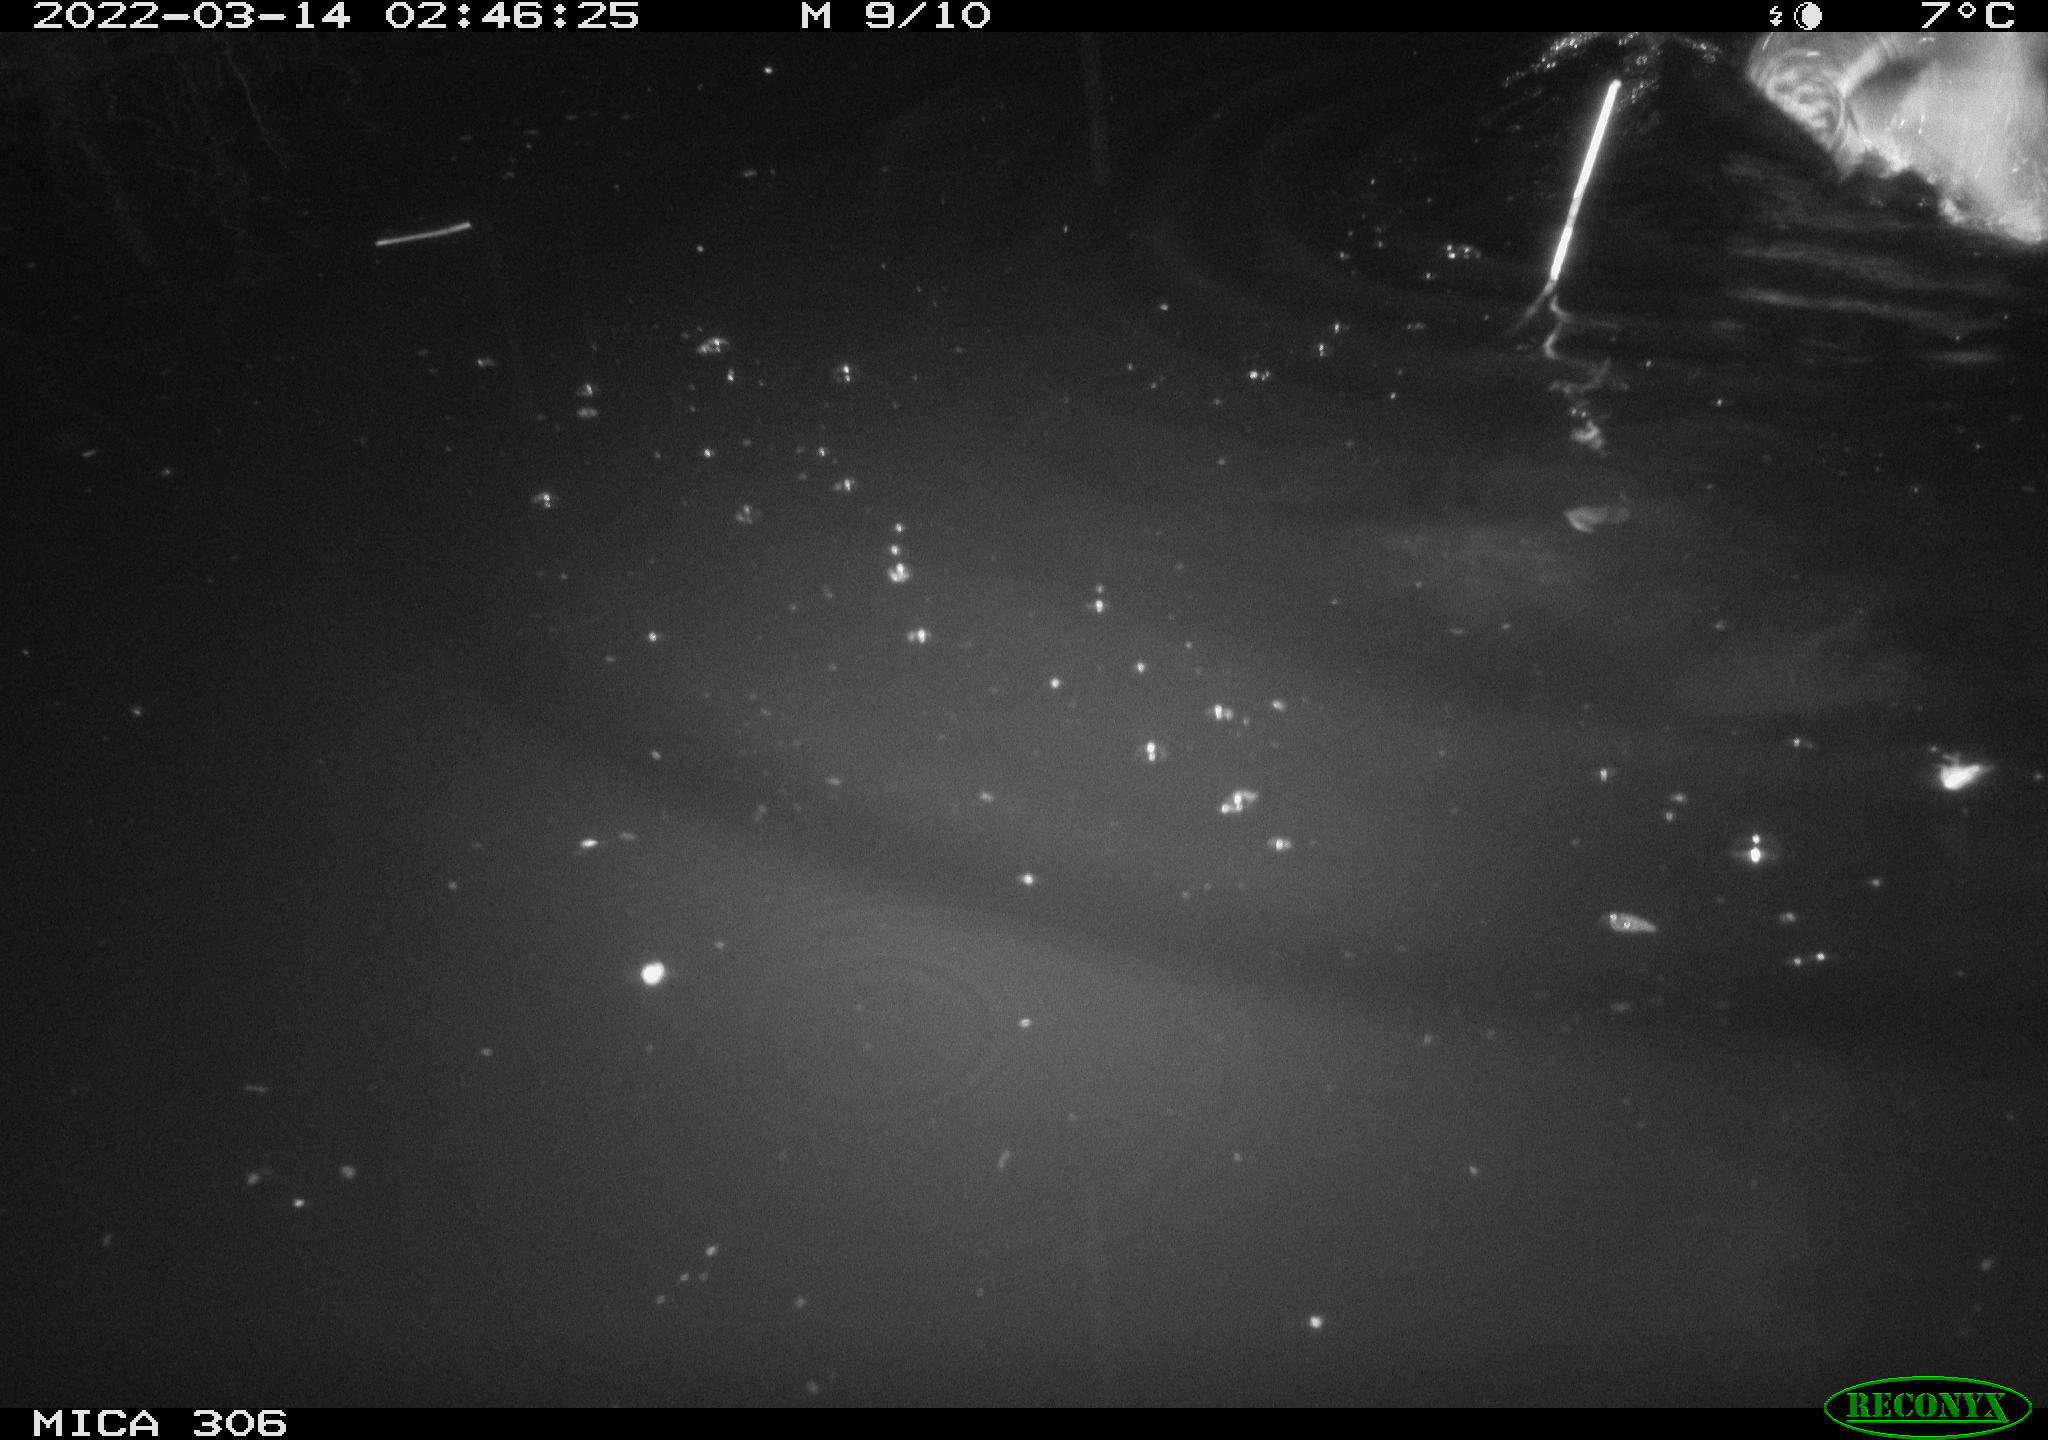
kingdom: Animalia
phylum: Chordata
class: Aves
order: Anseriformes
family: Anatidae
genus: Anas
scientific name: Anas
